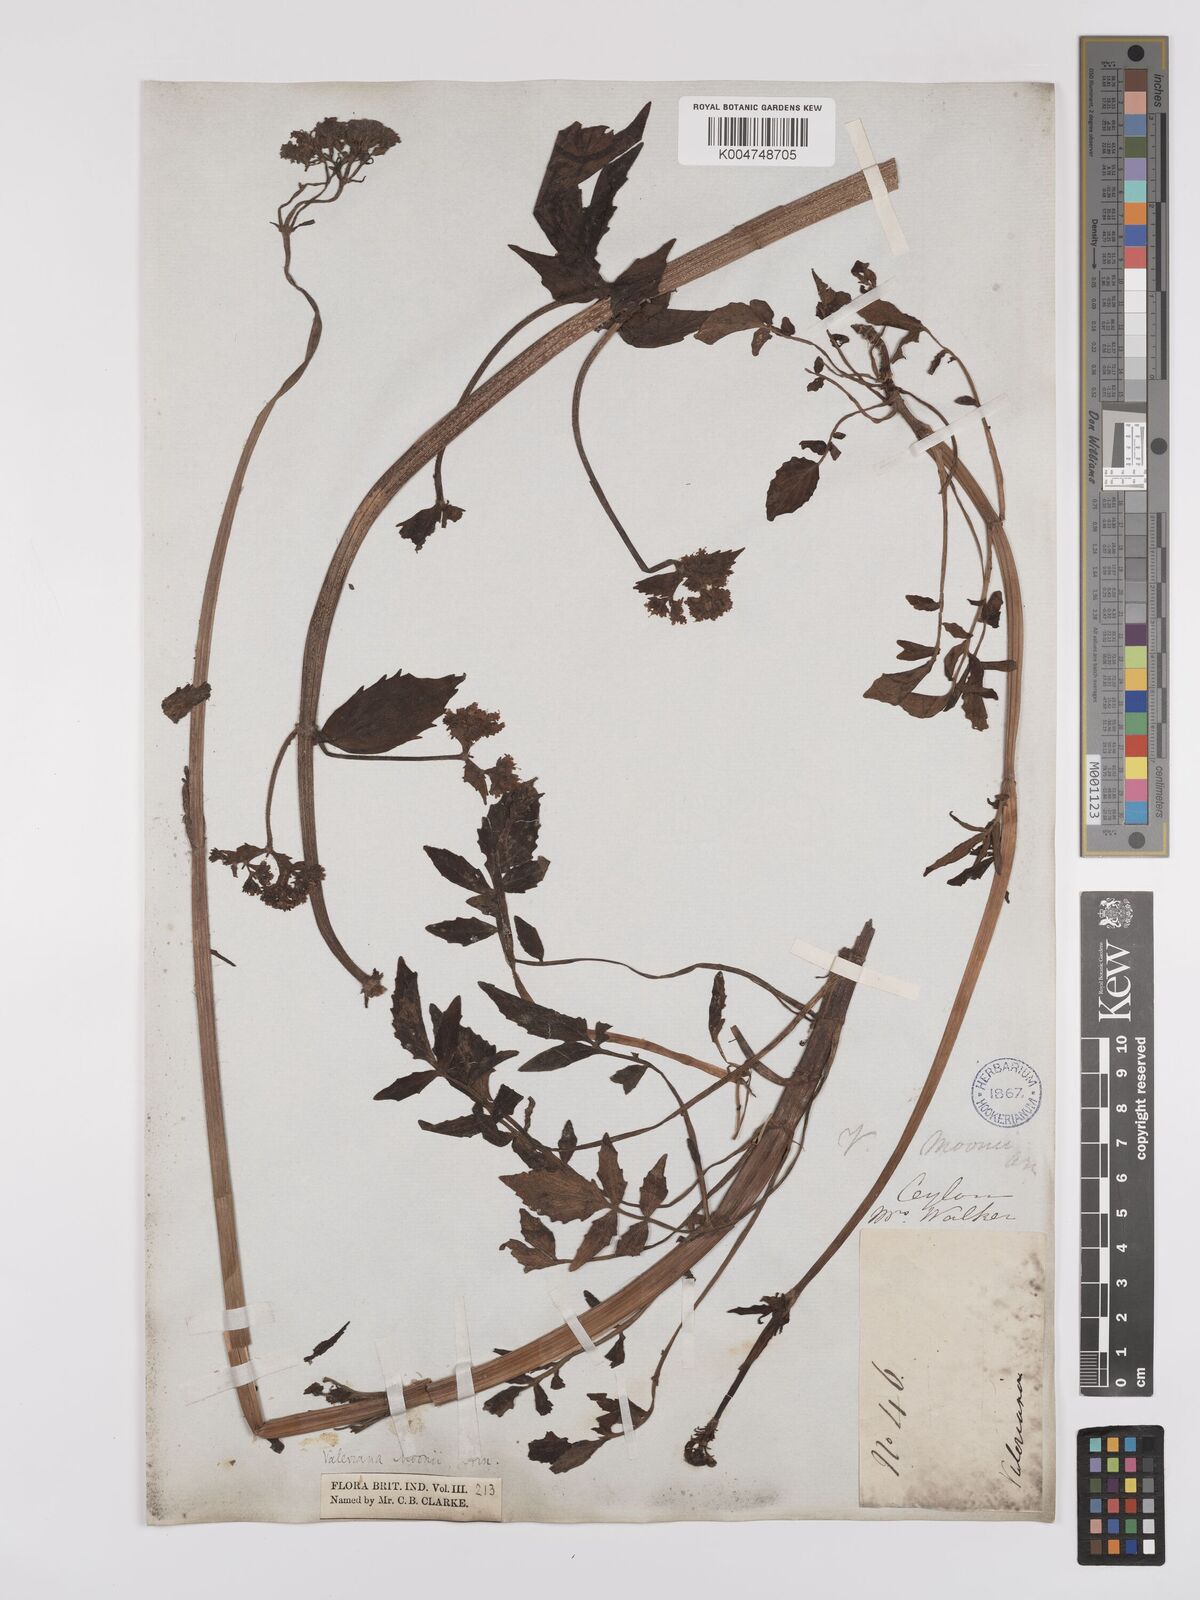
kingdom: Plantae
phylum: Tracheophyta
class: Magnoliopsida
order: Dipsacales
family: Caprifoliaceae
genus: Valeriana
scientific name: Valeriana moonii
